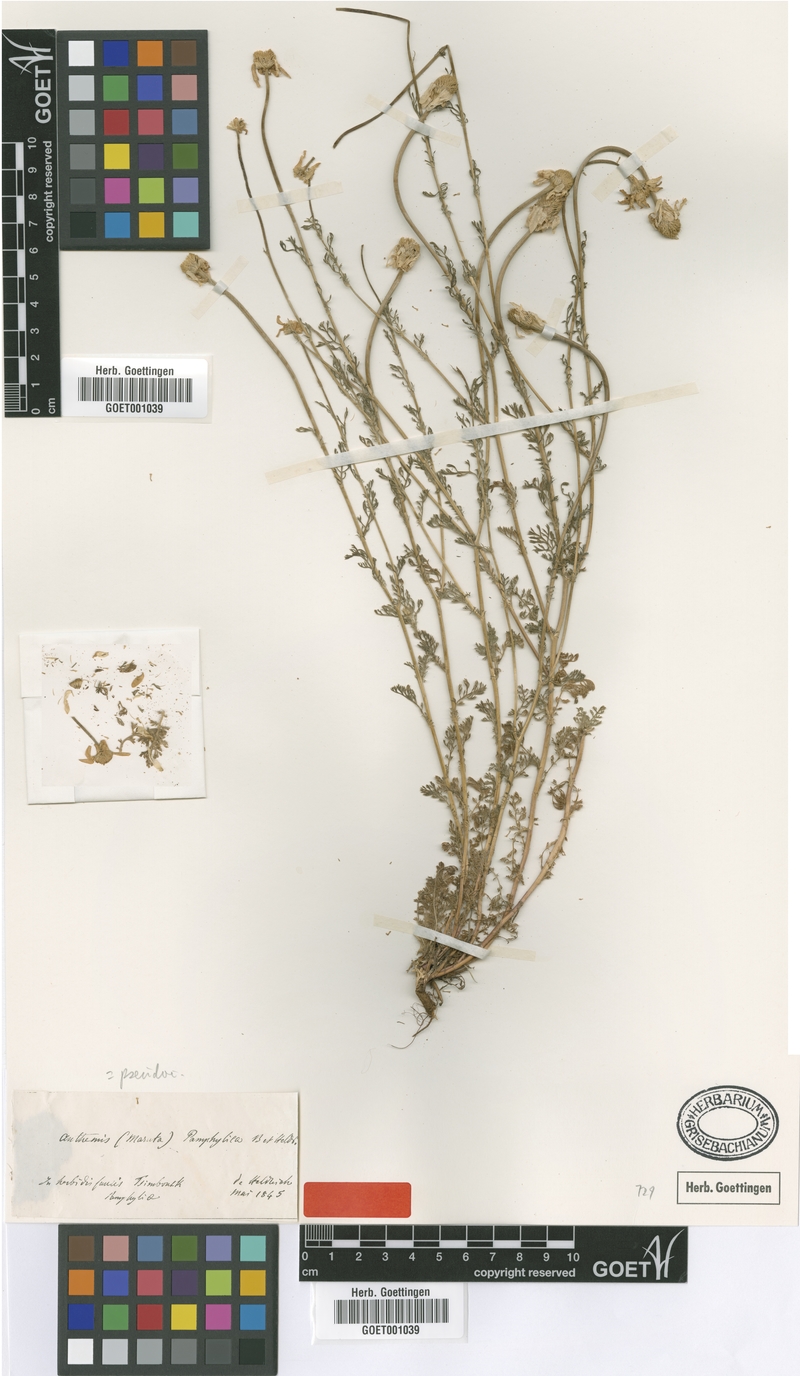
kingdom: Plantae
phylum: Tracheophyta
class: Magnoliopsida
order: Asterales
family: Asteraceae
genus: Anthemis
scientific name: Anthemis pseudocotula
